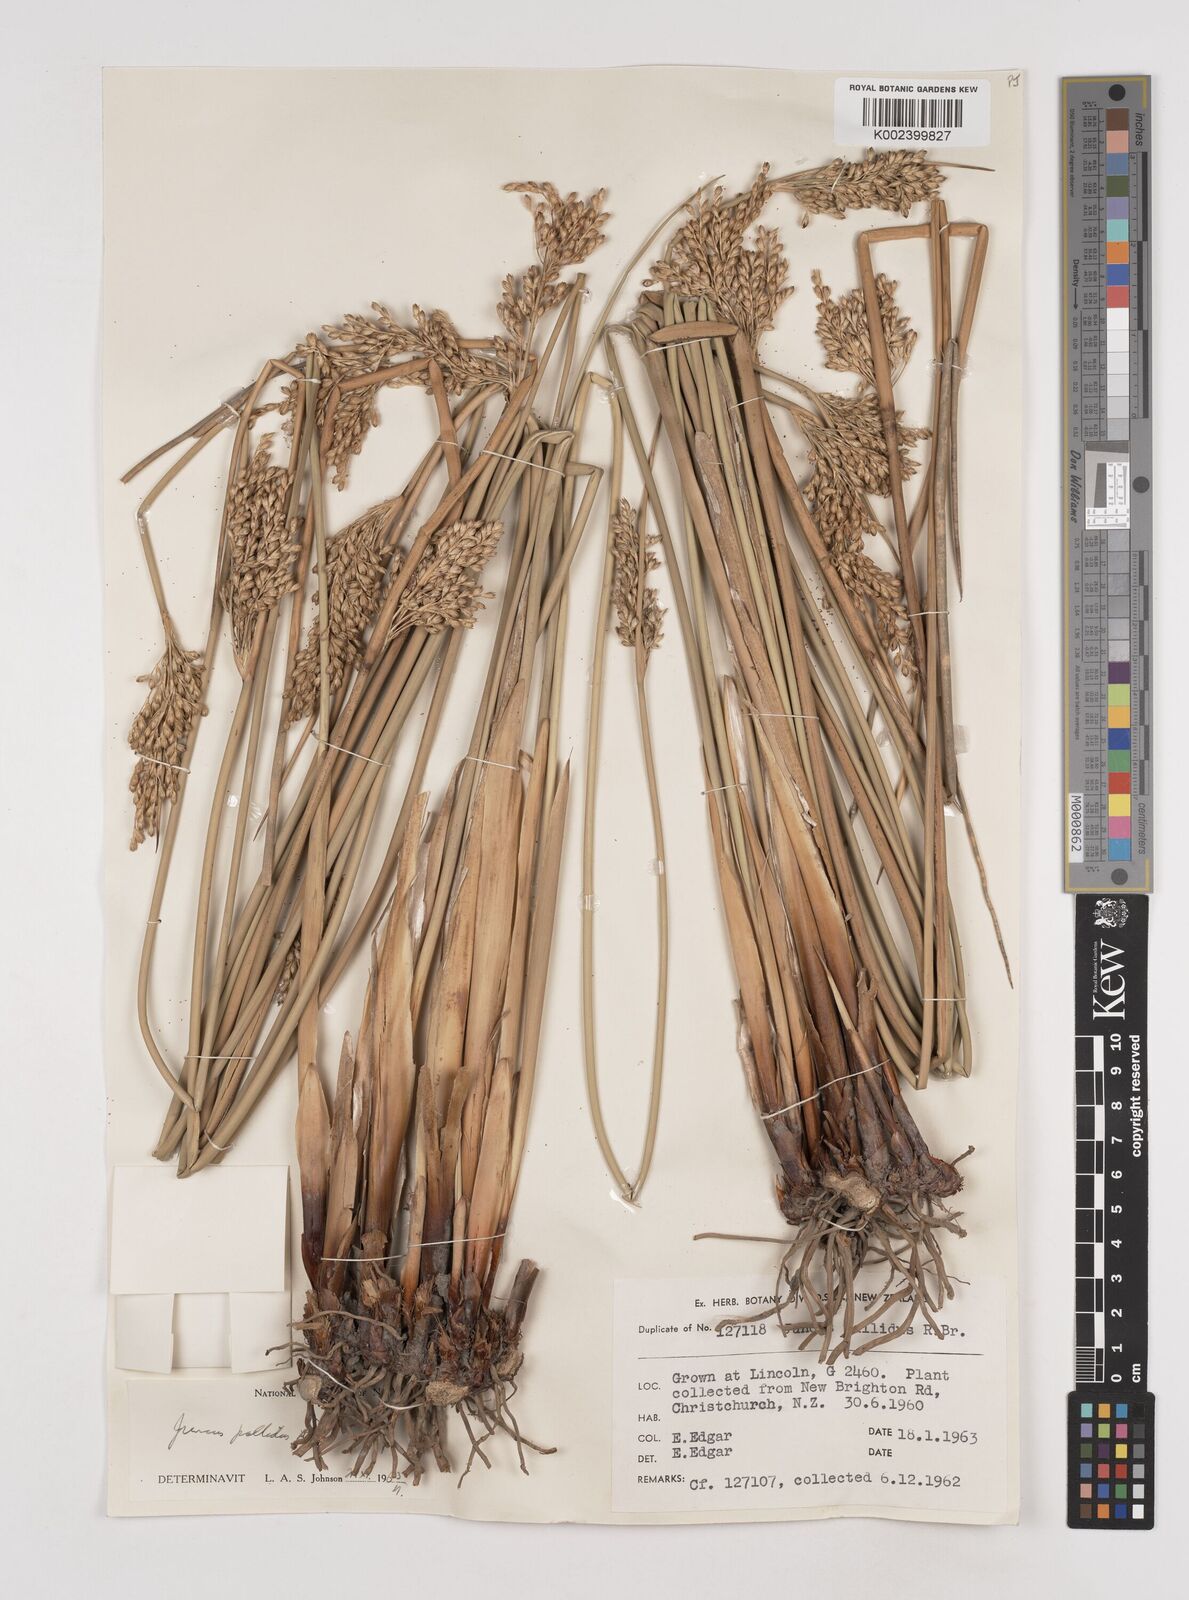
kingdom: Plantae
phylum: Tracheophyta
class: Liliopsida
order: Poales
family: Juncaceae
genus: Juncus
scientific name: Juncus pallidus
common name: Great soft-rush
